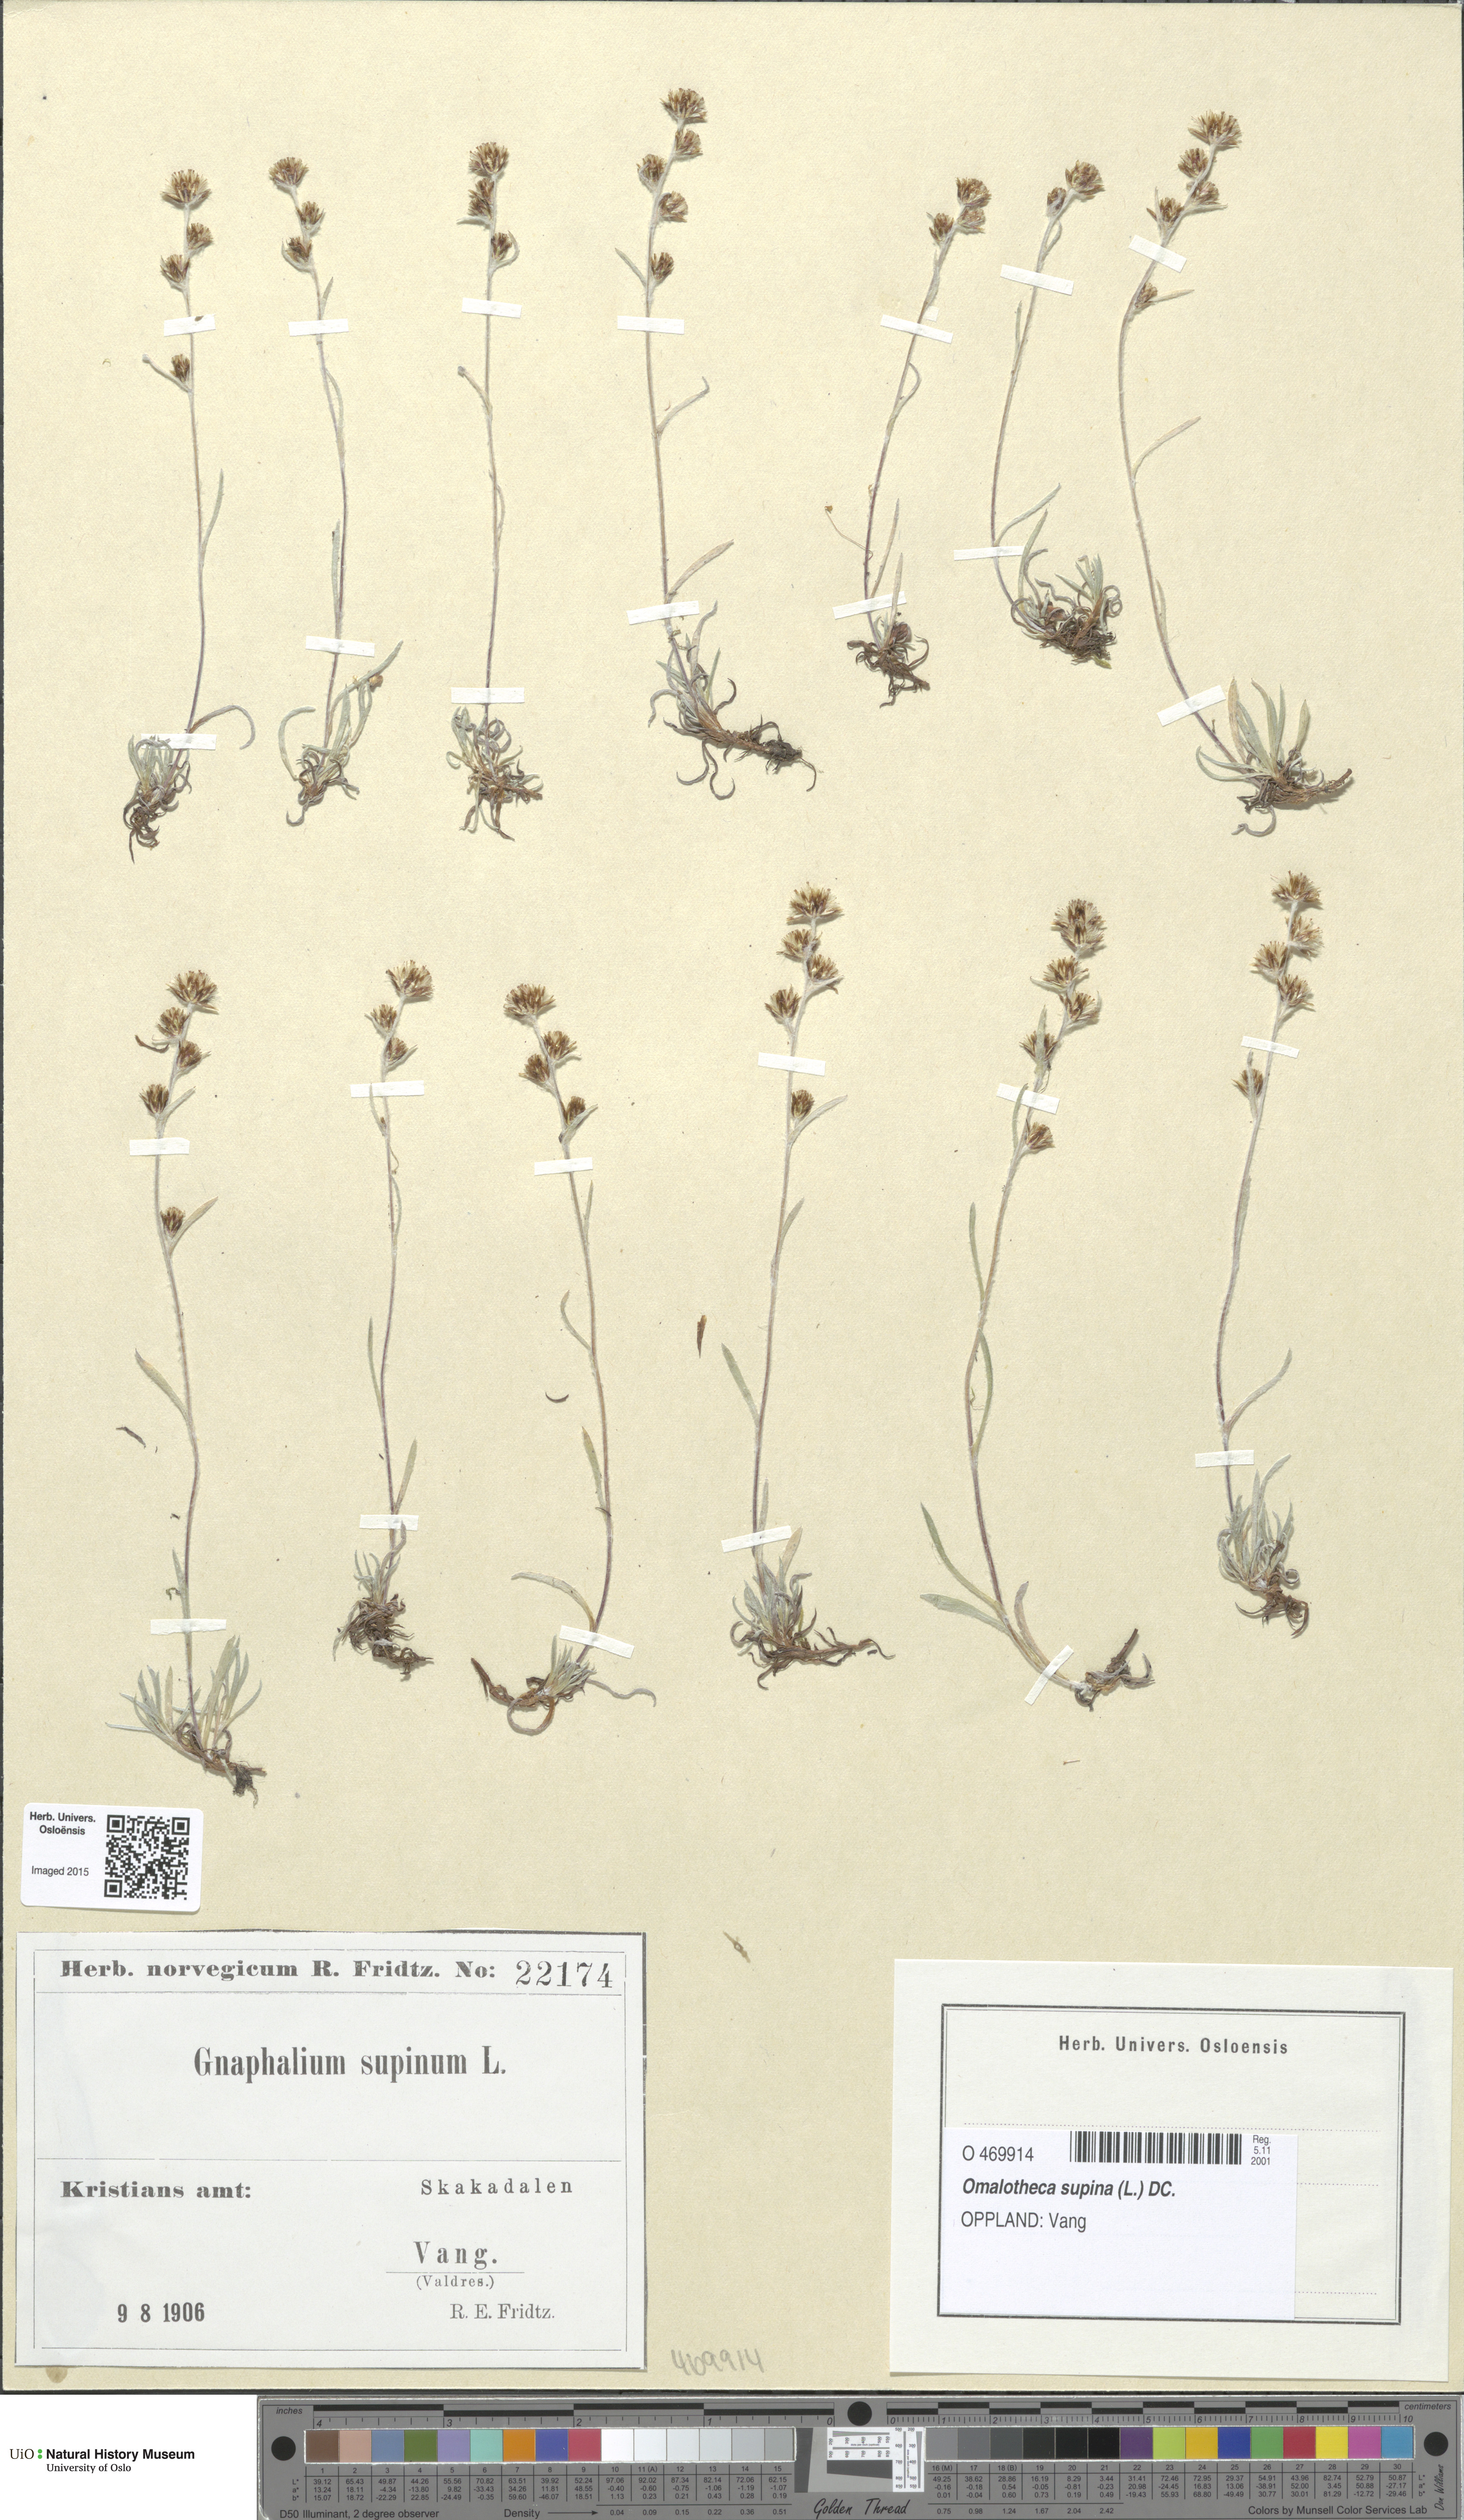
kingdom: Plantae
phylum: Tracheophyta
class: Magnoliopsida
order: Asterales
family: Asteraceae
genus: Omalotheca
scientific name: Omalotheca supina
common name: Alpine arctic-cudweed
